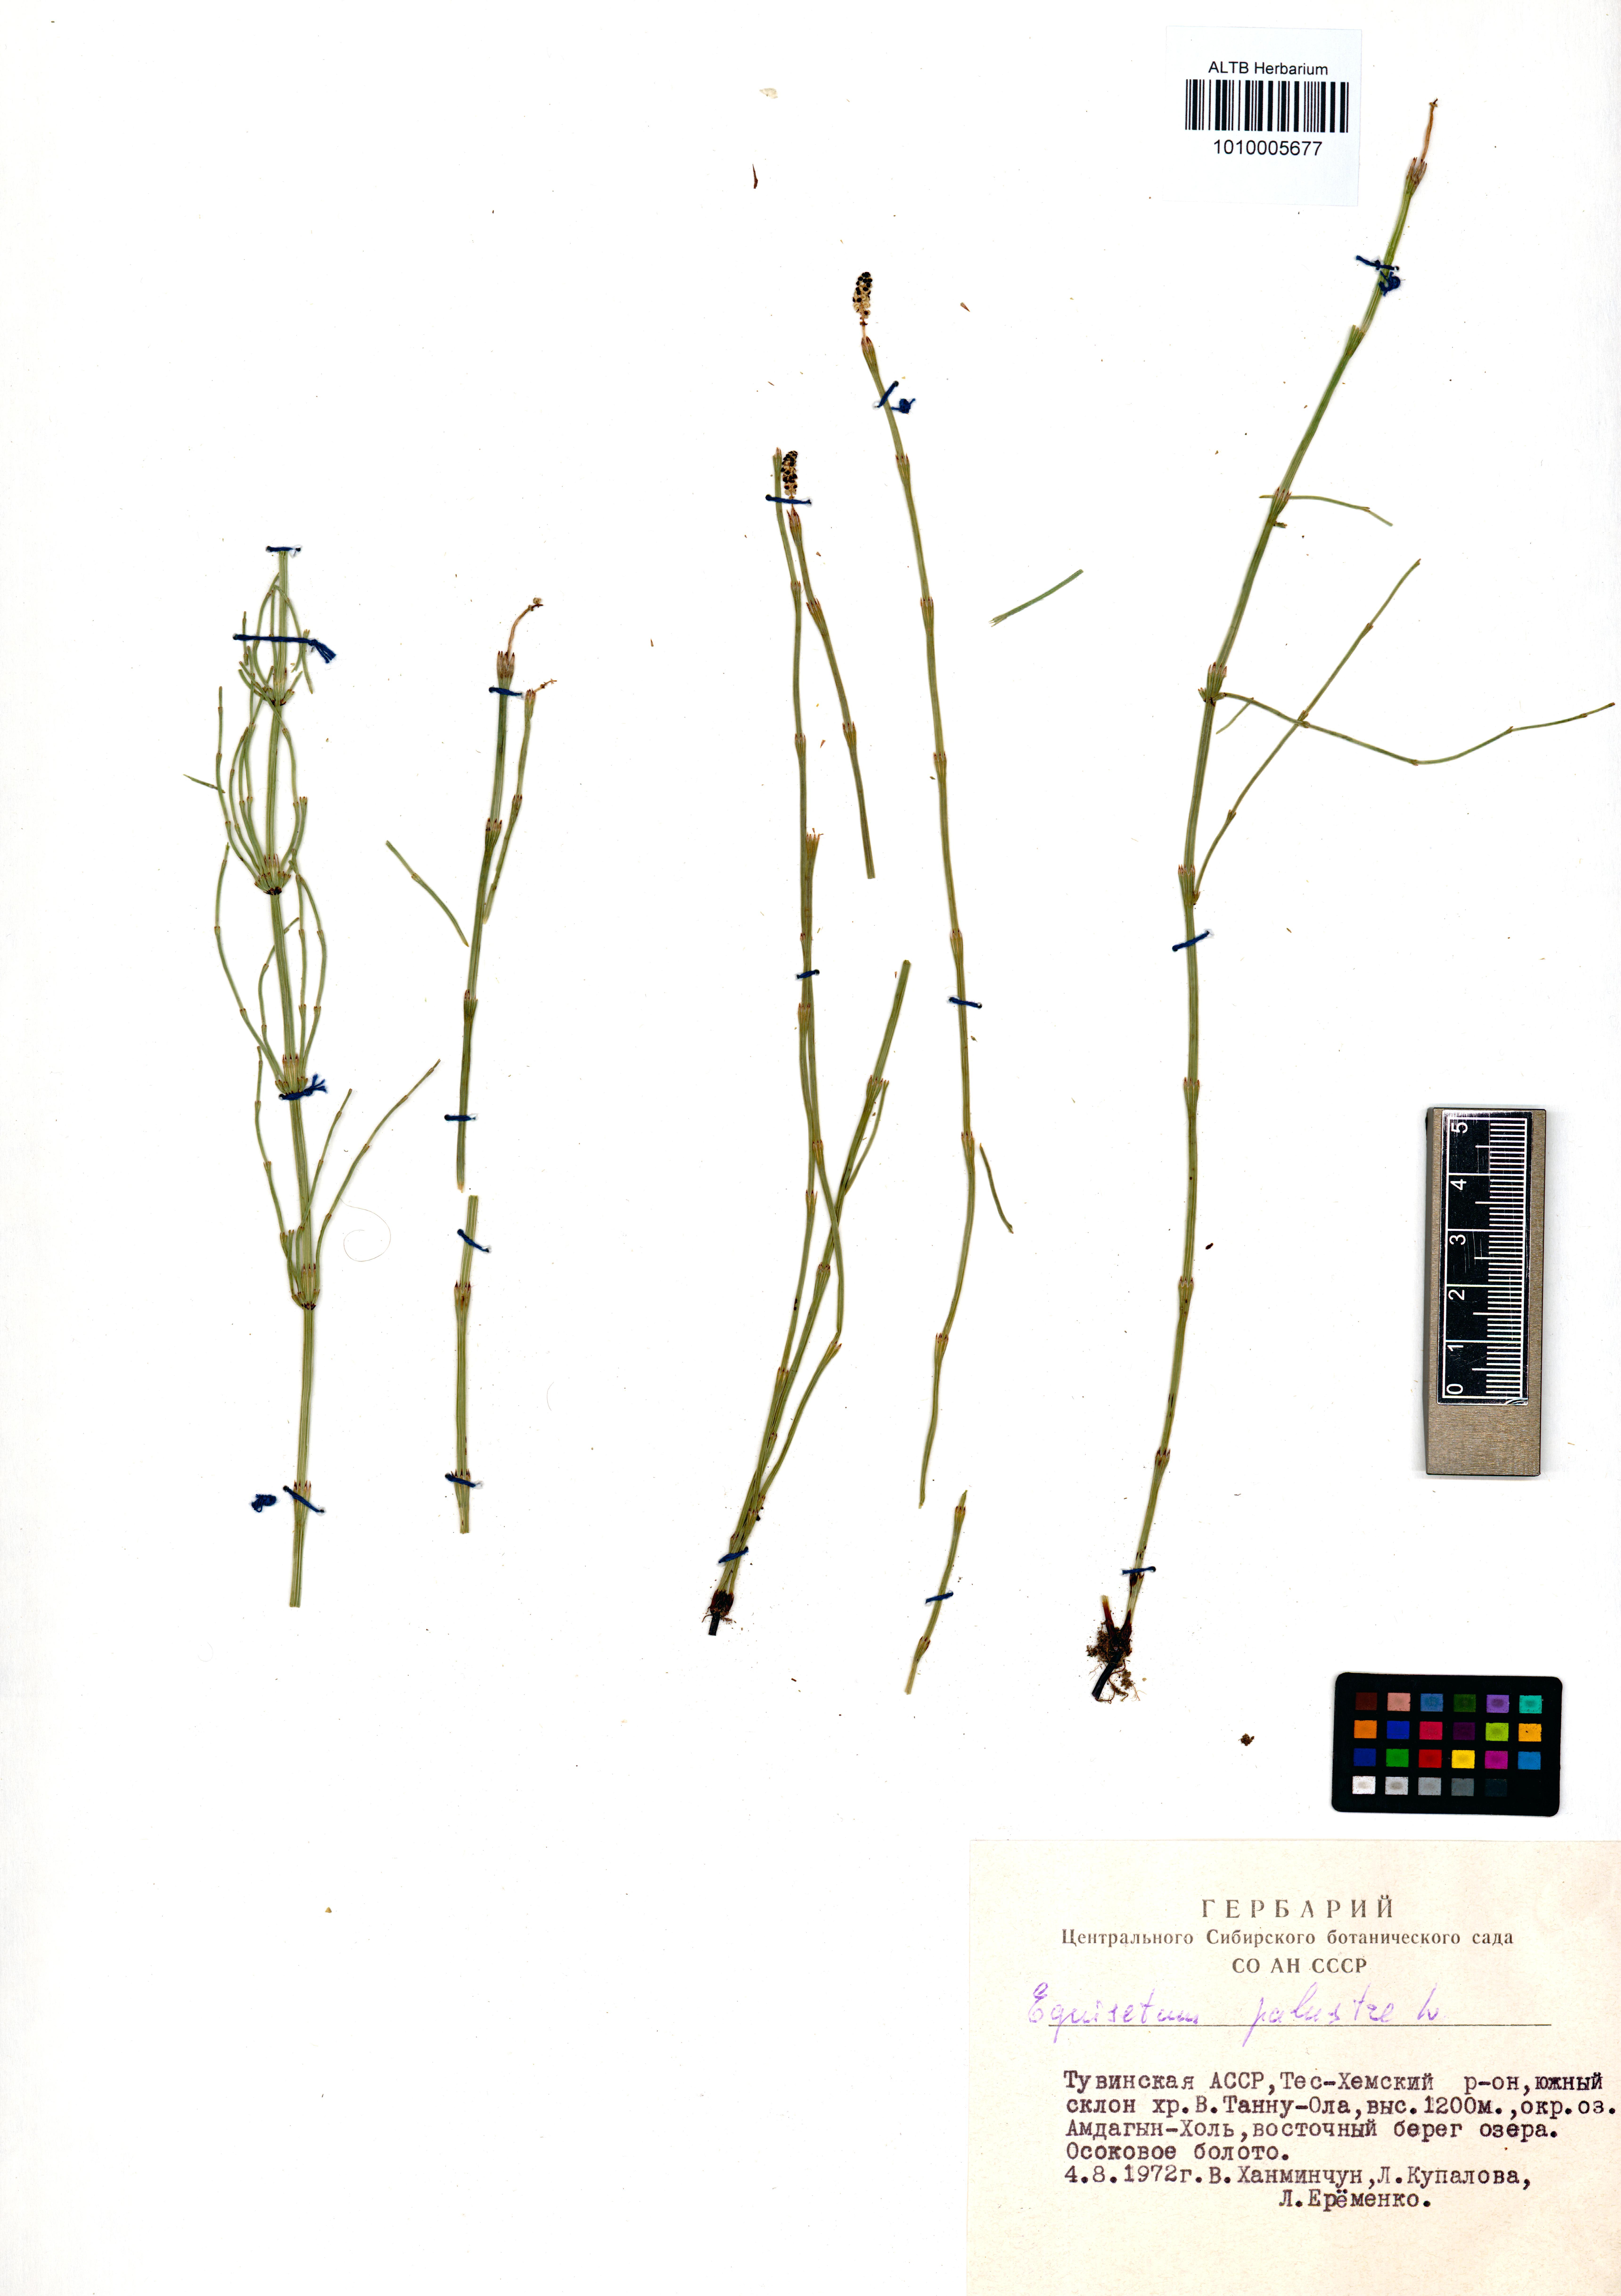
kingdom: Plantae
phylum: Tracheophyta
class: Polypodiopsida
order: Equisetales
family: Equisetaceae
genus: Equisetum
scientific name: Equisetum palustre
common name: Marsh horsetail
